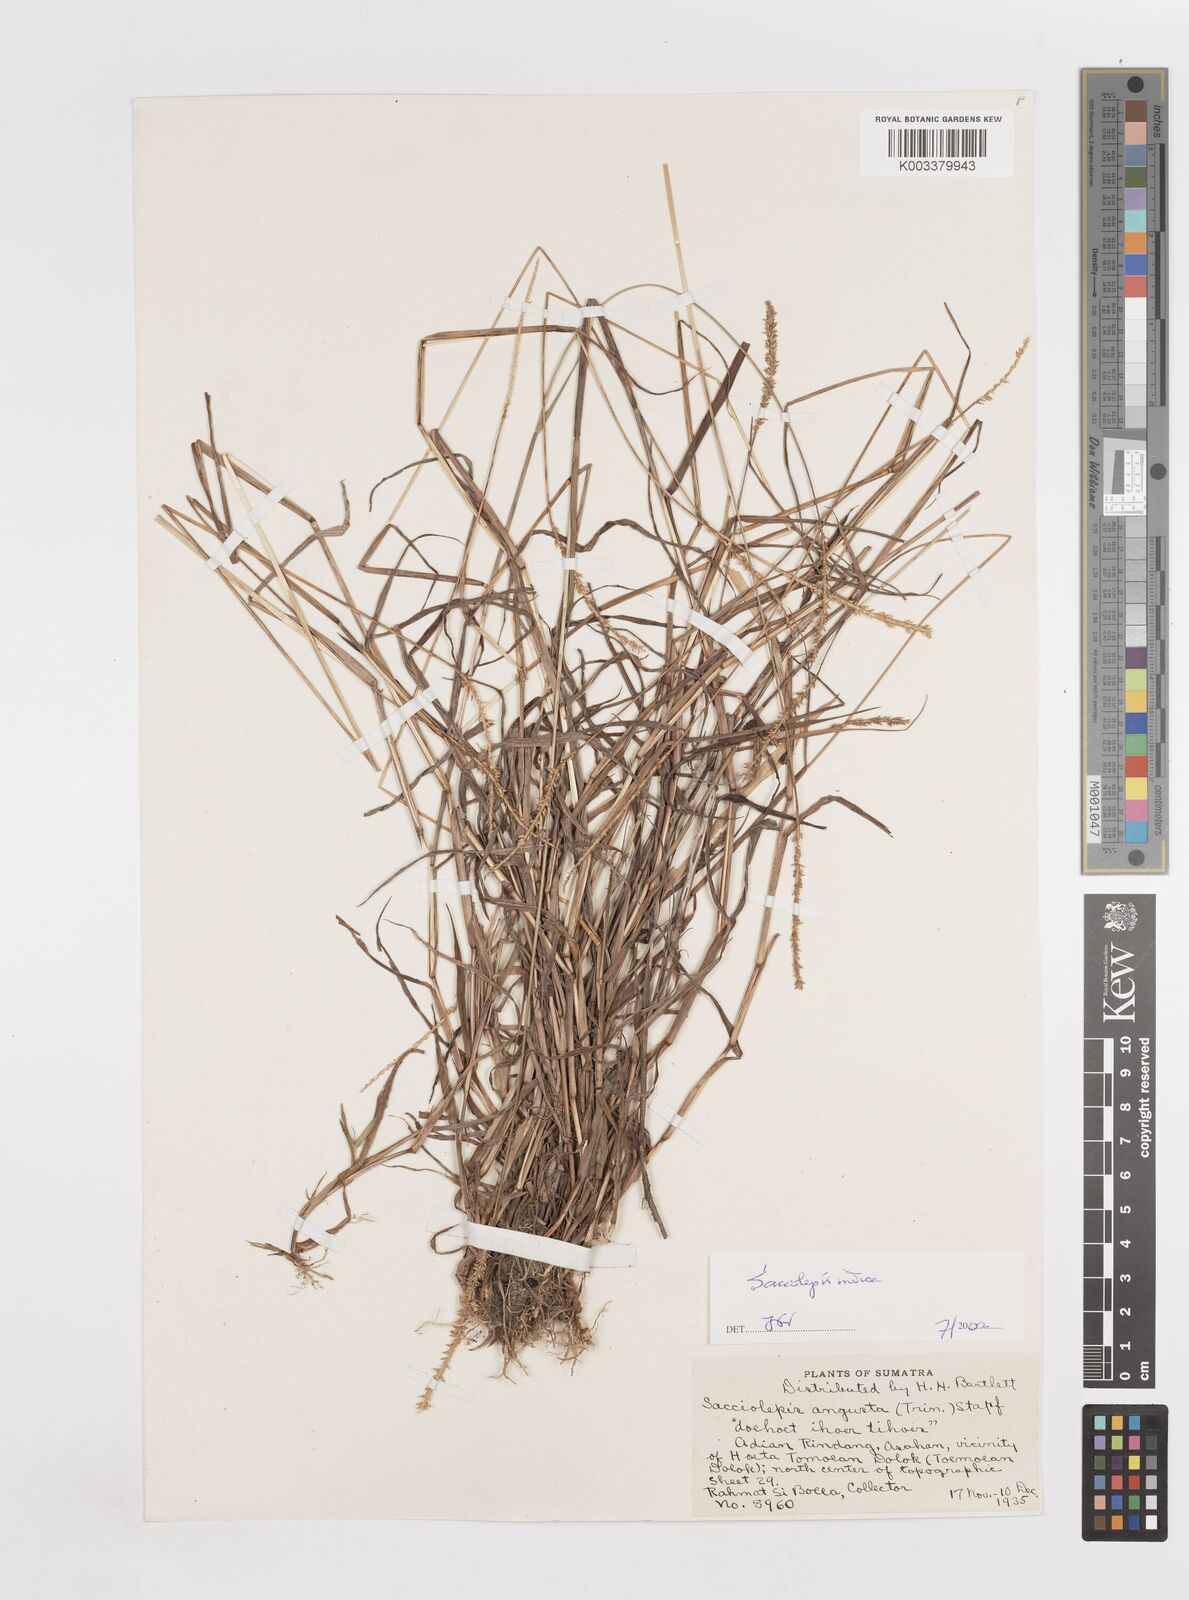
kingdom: Plantae
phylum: Tracheophyta
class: Liliopsida
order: Poales
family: Poaceae
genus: Sacciolepis
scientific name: Sacciolepis indica
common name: Glenwoodgrass
